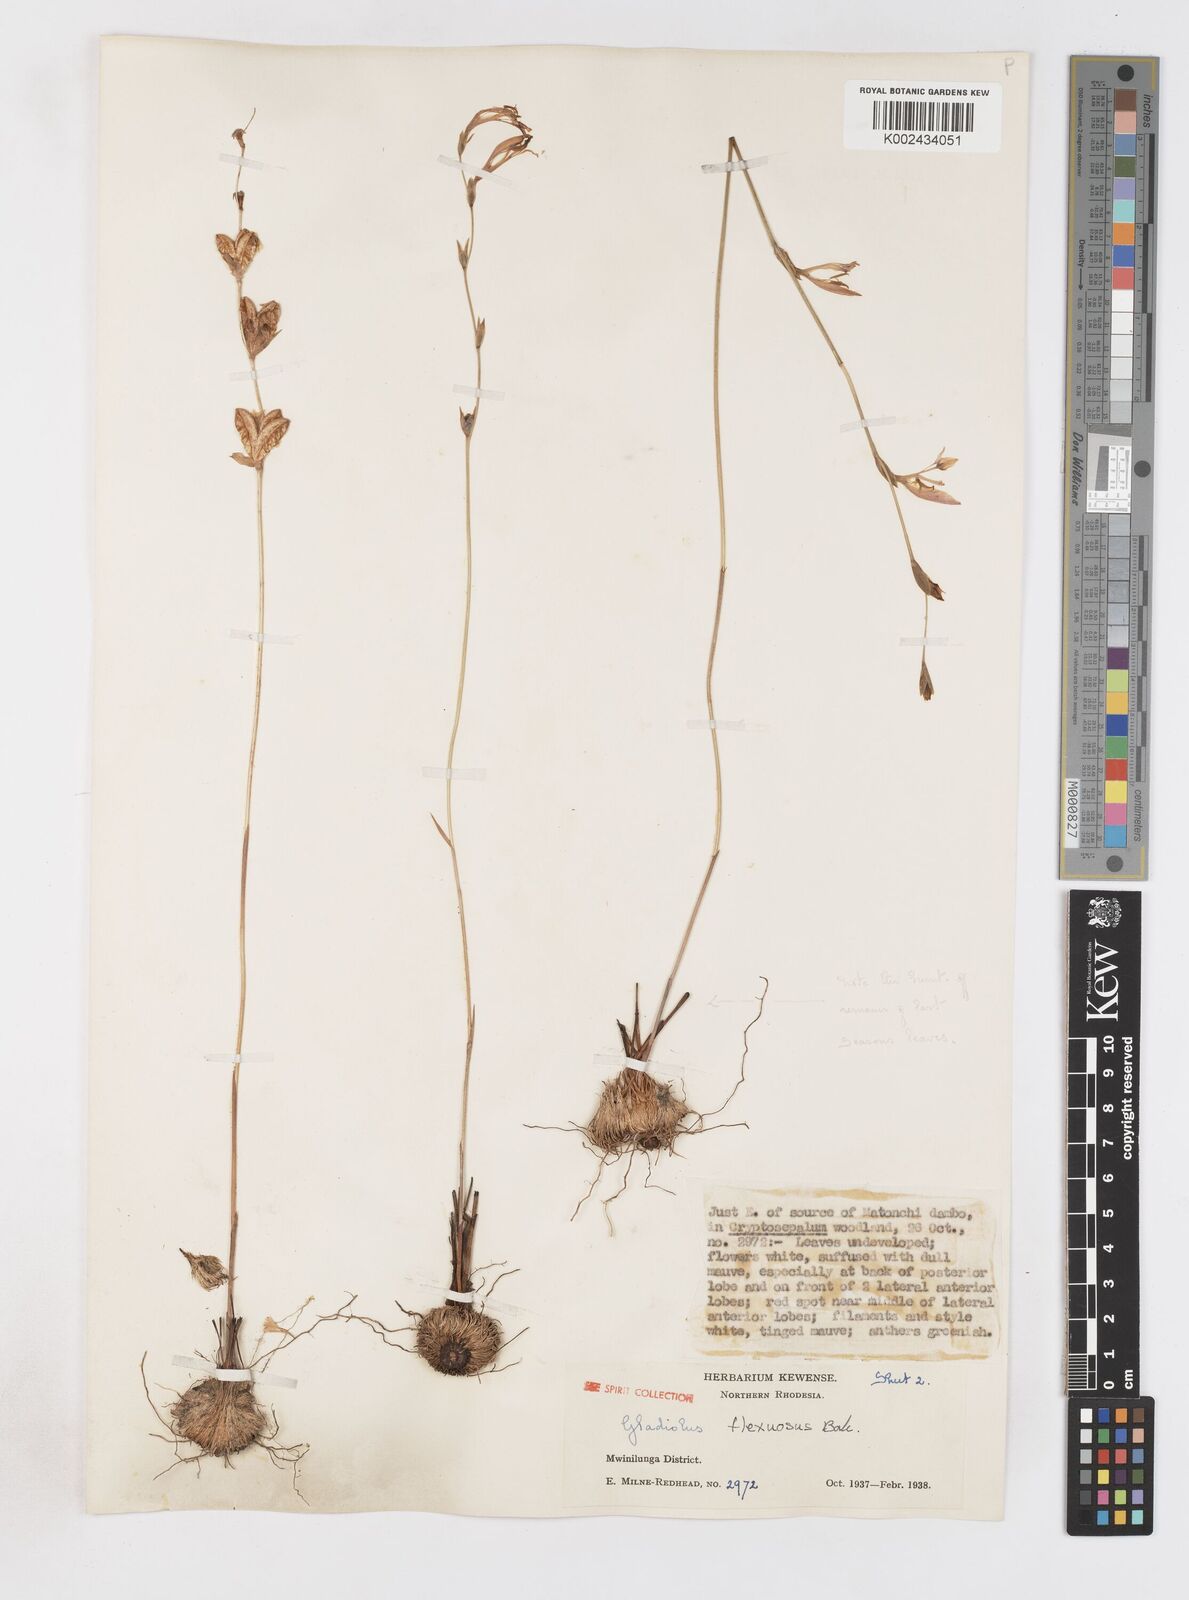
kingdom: Plantae
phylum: Tracheophyta
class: Liliopsida
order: Asparagales
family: Iridaceae
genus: Gladiolus
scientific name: Gladiolus atropurpureus
